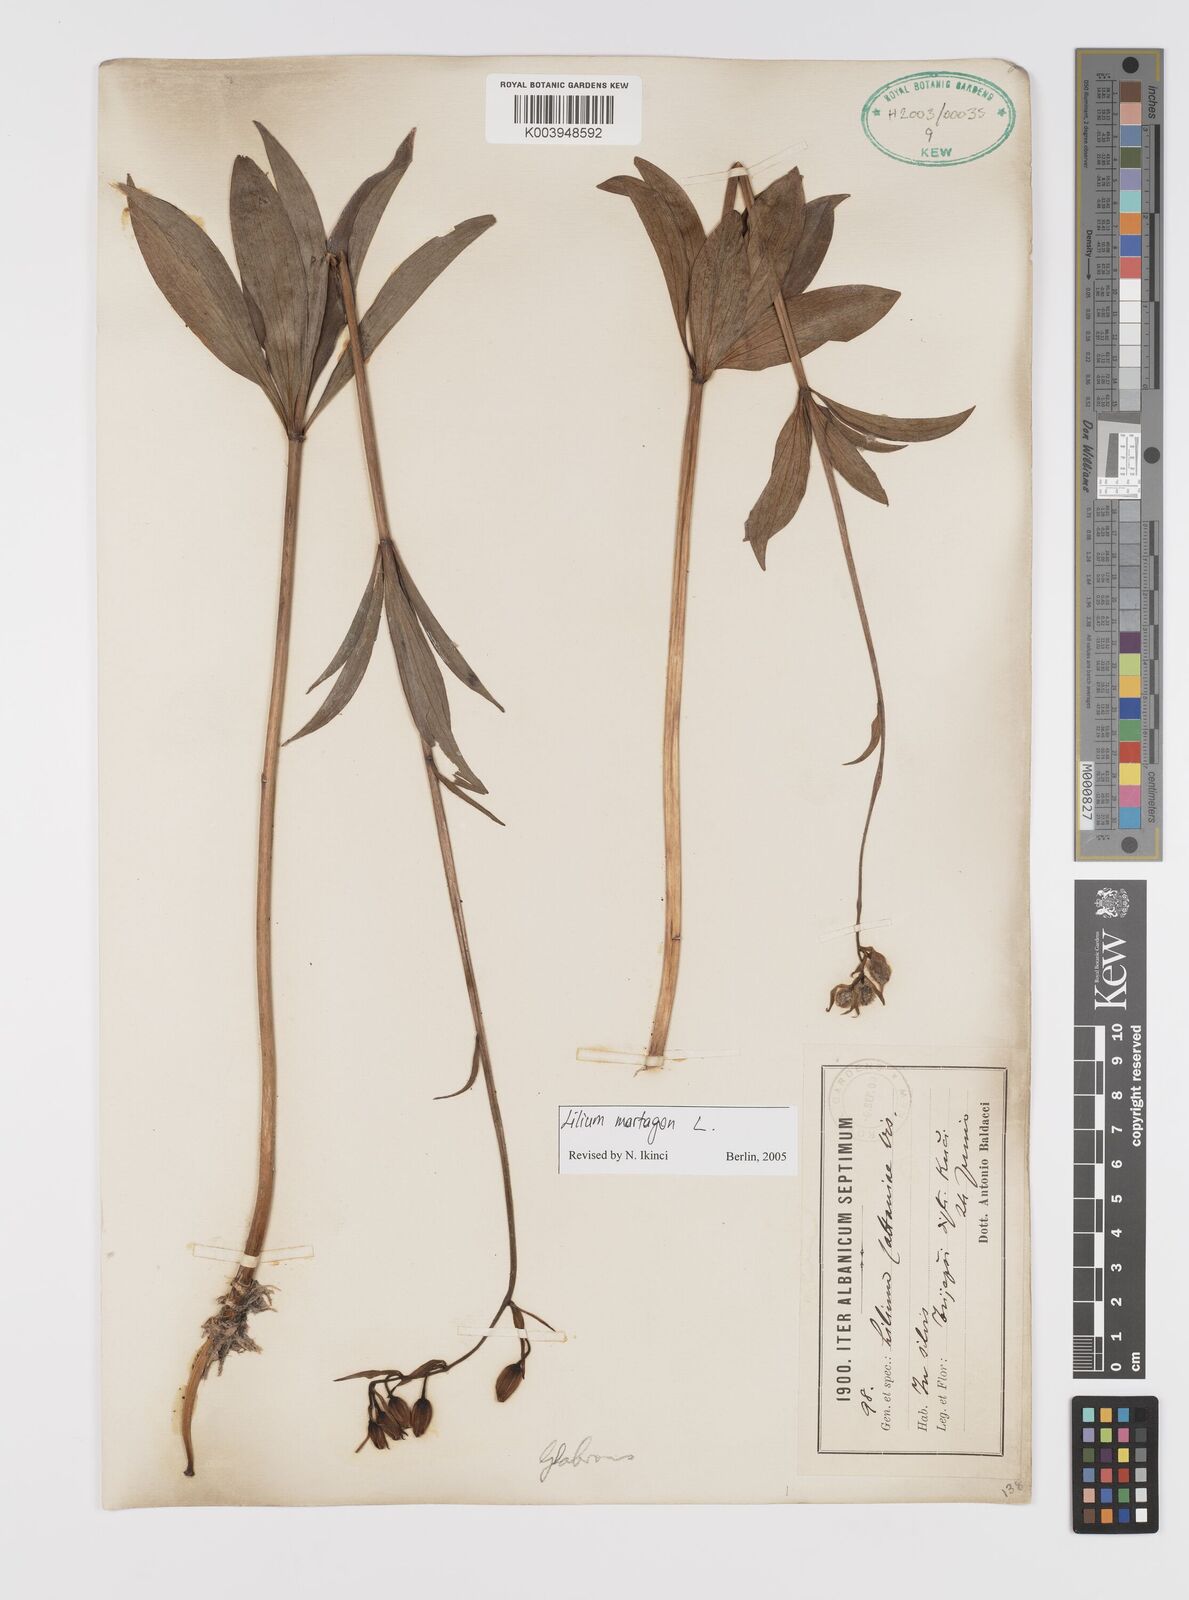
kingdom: Plantae
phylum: Tracheophyta
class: Liliopsida
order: Liliales
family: Liliaceae
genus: Lilium
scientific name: Lilium martagon
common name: Martagon lily
